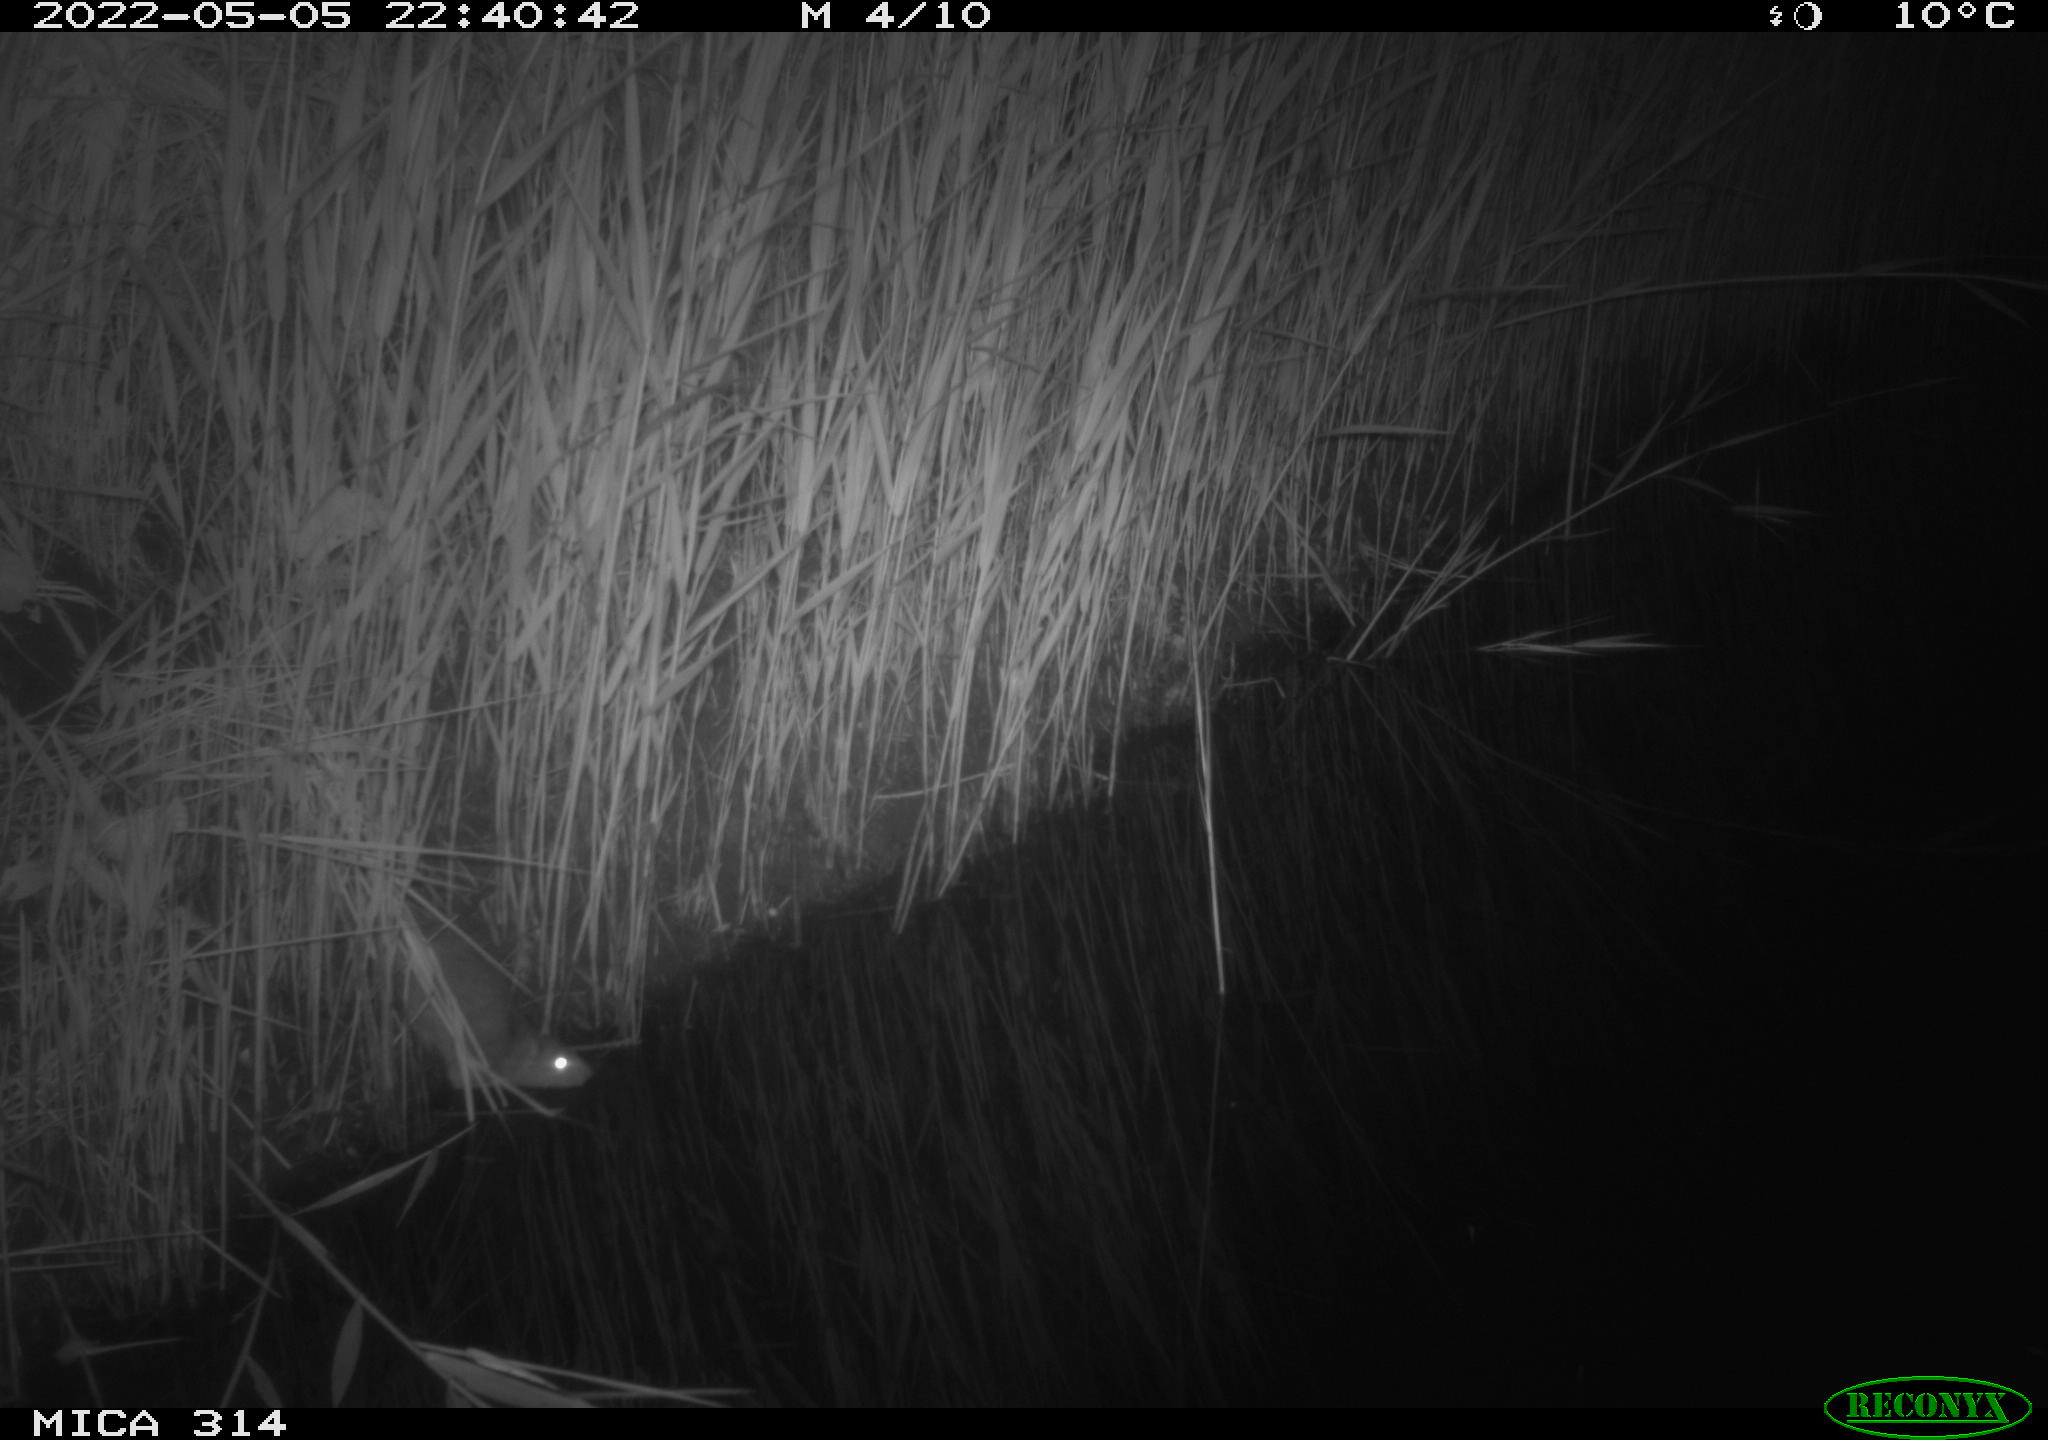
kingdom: Animalia
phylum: Chordata
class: Mammalia
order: Rodentia
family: Cricetidae
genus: Ondatra
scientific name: Ondatra zibethicus
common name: Muskrat
